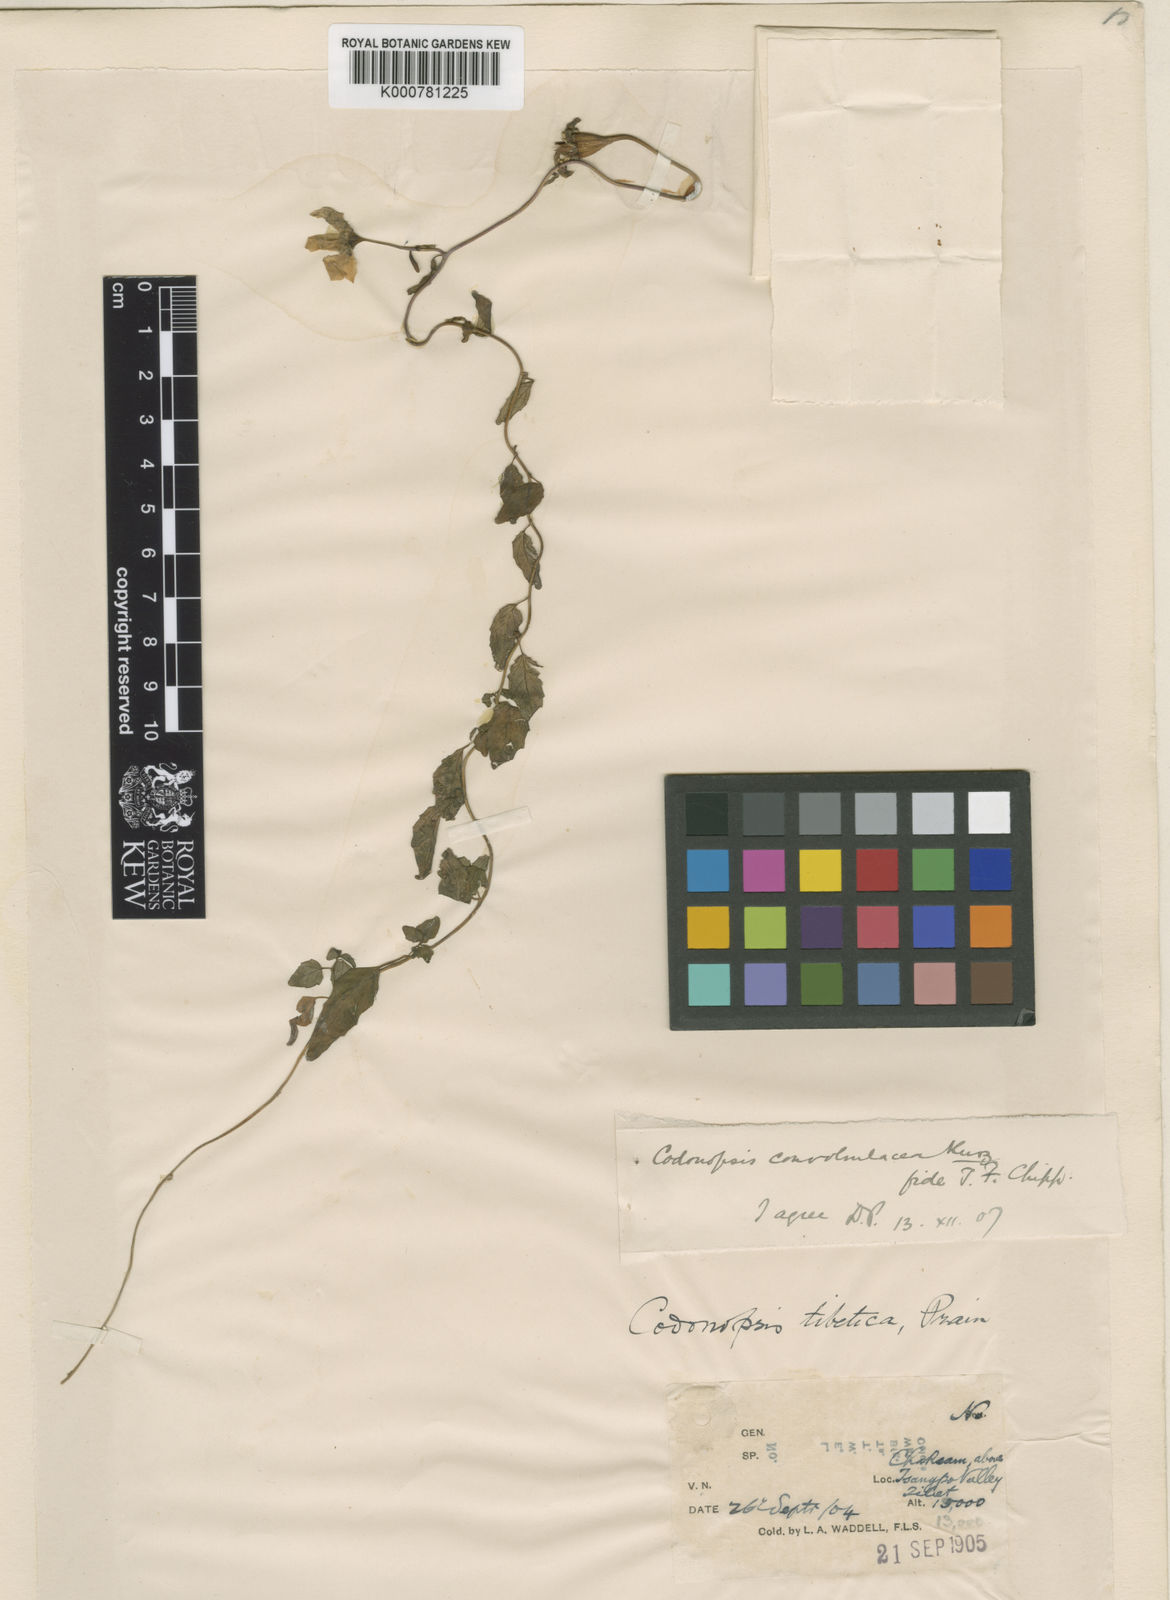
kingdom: Plantae
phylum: Tracheophyta
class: Magnoliopsida
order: Asterales
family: Campanulaceae
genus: Pseudocodon
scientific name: Pseudocodon vinciflorus
